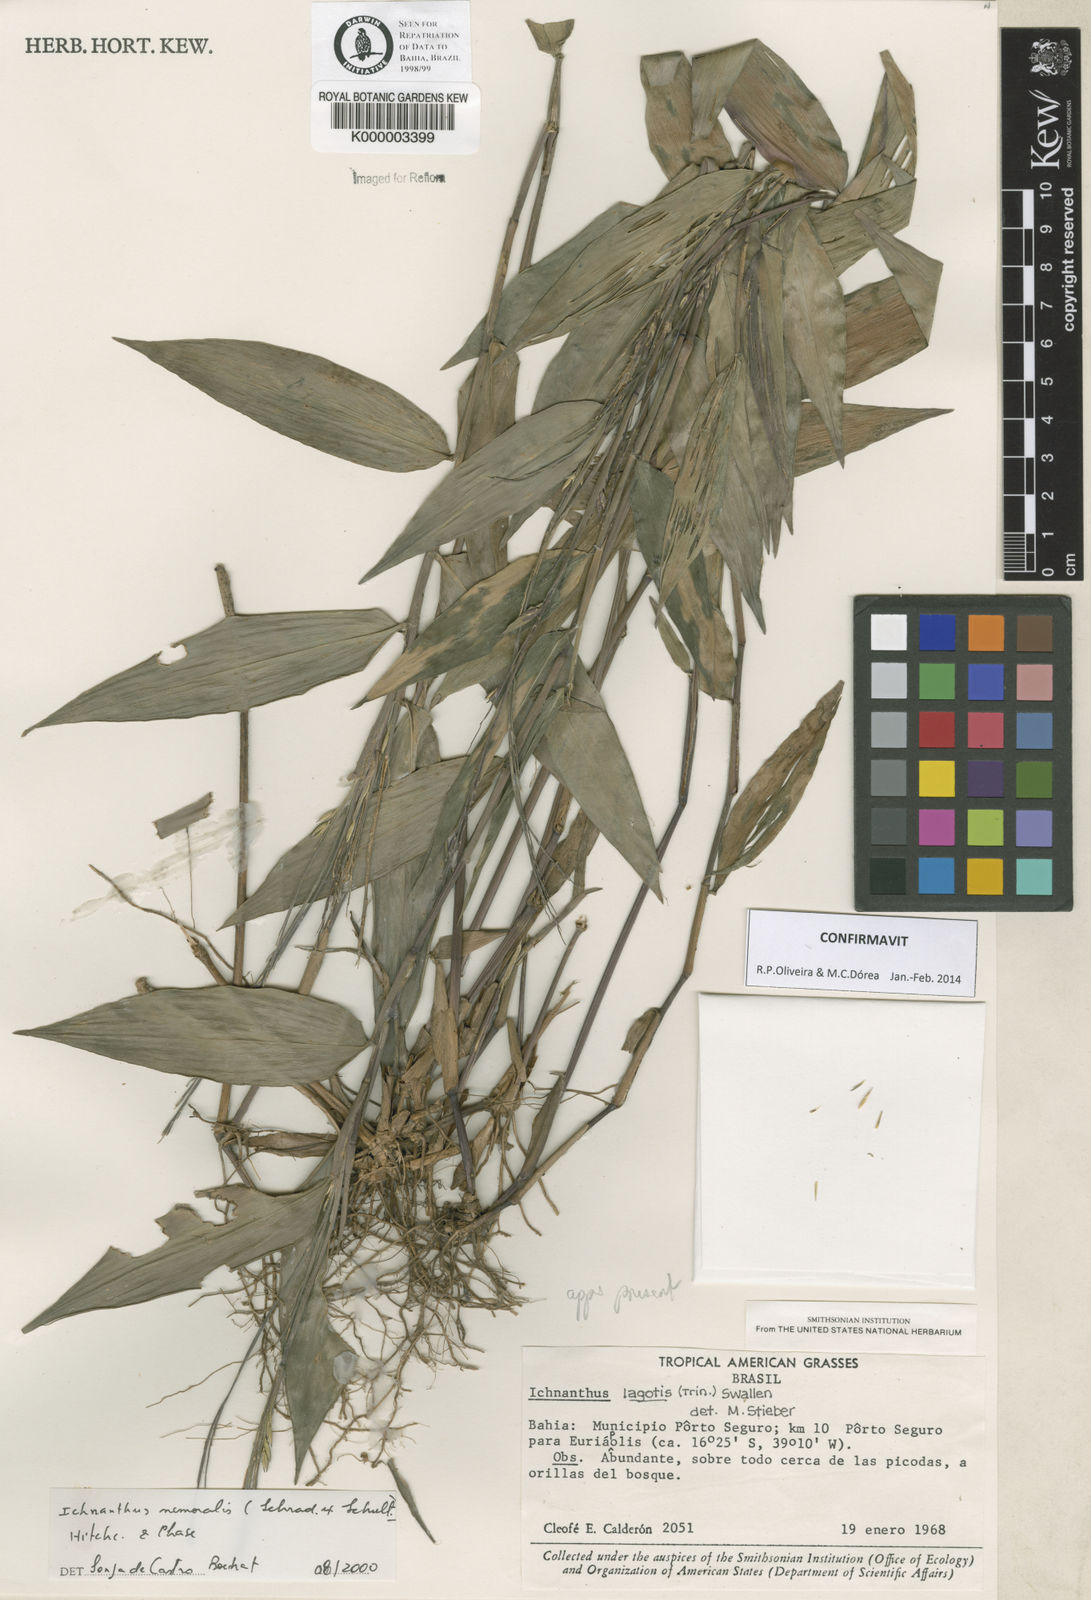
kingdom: Plantae
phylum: Tracheophyta
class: Liliopsida
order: Poales
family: Poaceae
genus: Ichnanthus
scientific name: Ichnanthus nemoralis
